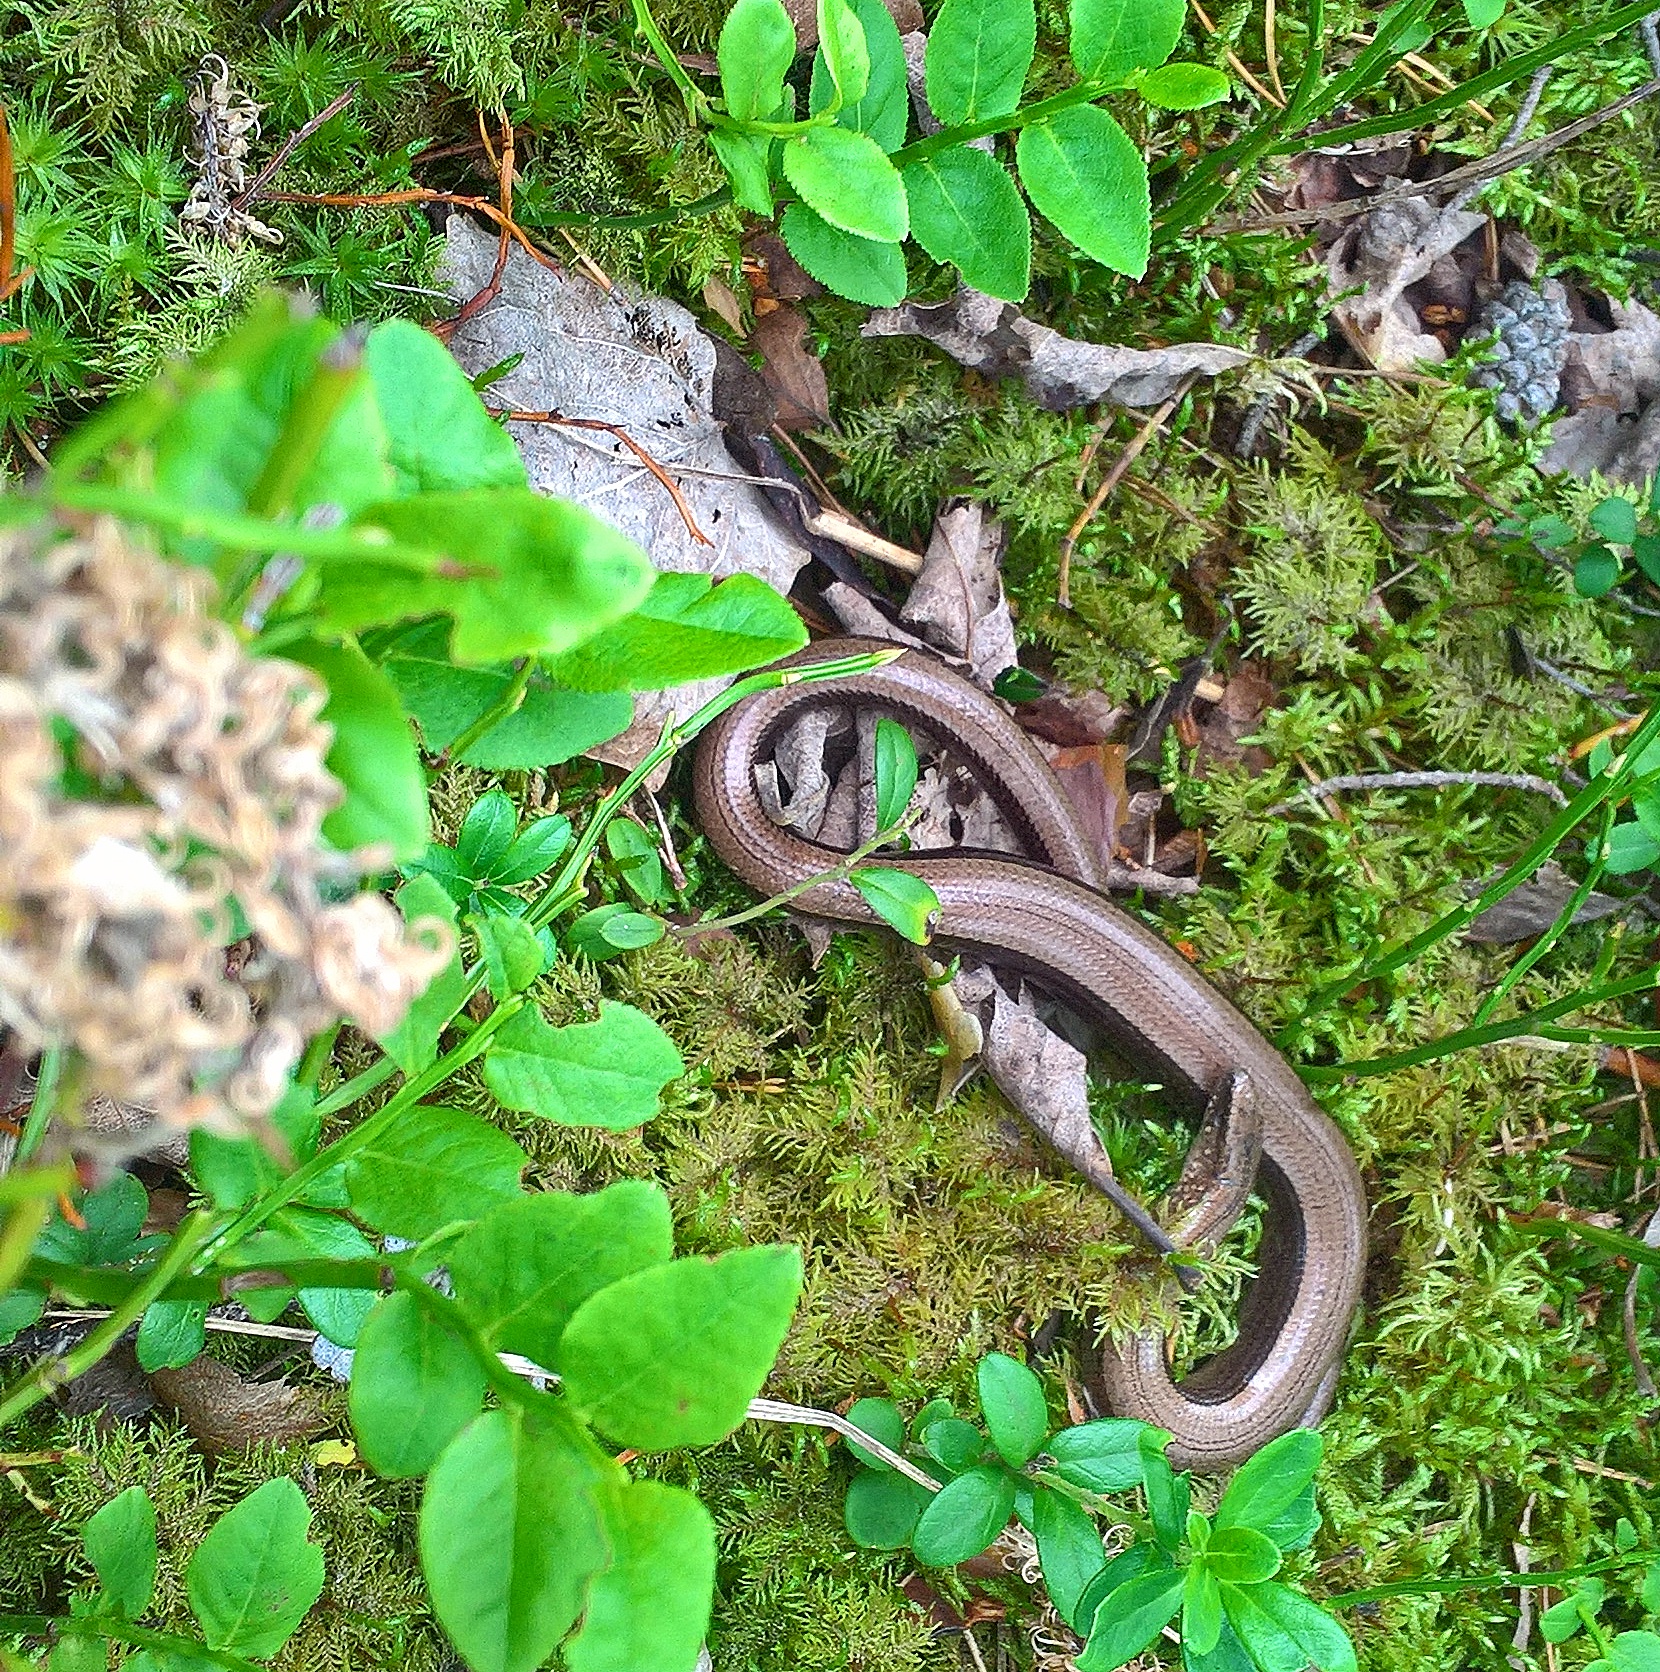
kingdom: Animalia
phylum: Chordata
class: Squamata
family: Anguidae
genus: Anguis
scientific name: Anguis colchica
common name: Slow worm
